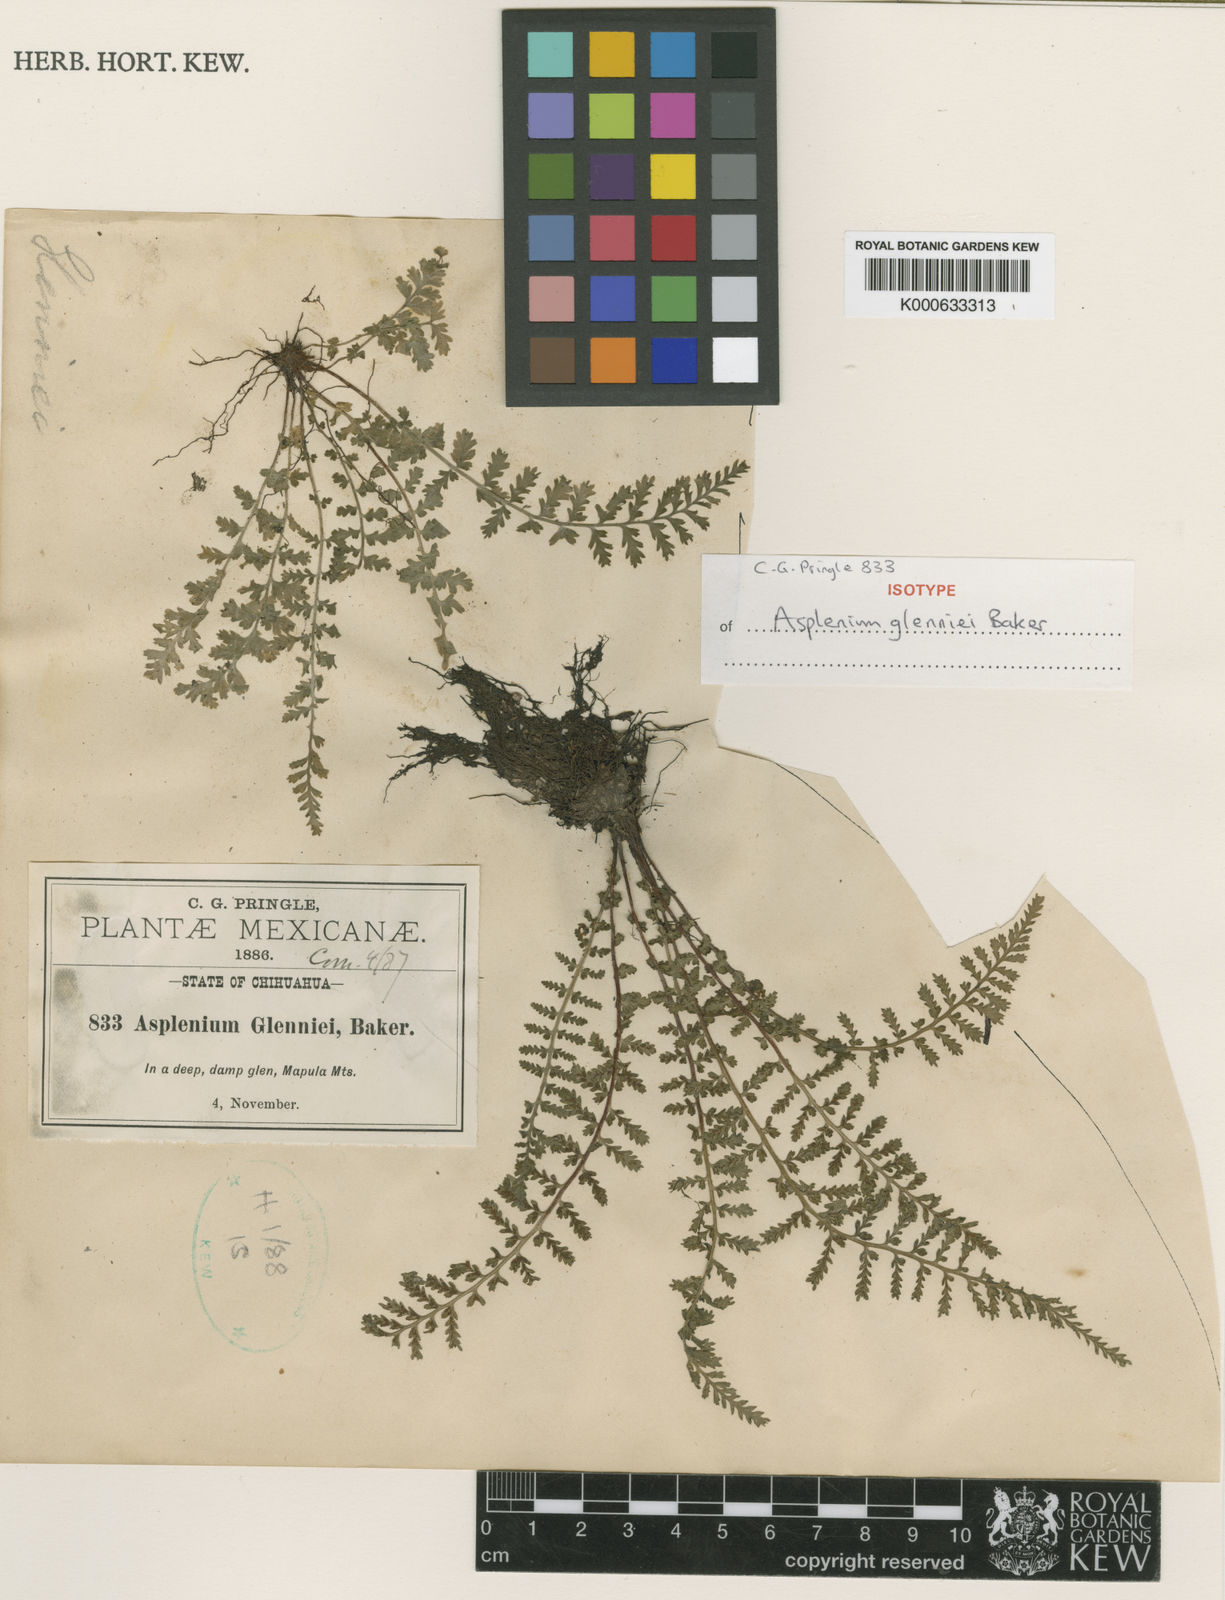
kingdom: Plantae
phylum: Tracheophyta
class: Polypodiopsida
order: Polypodiales
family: Aspleniaceae
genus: Asplenium
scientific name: Asplenium exiguum
